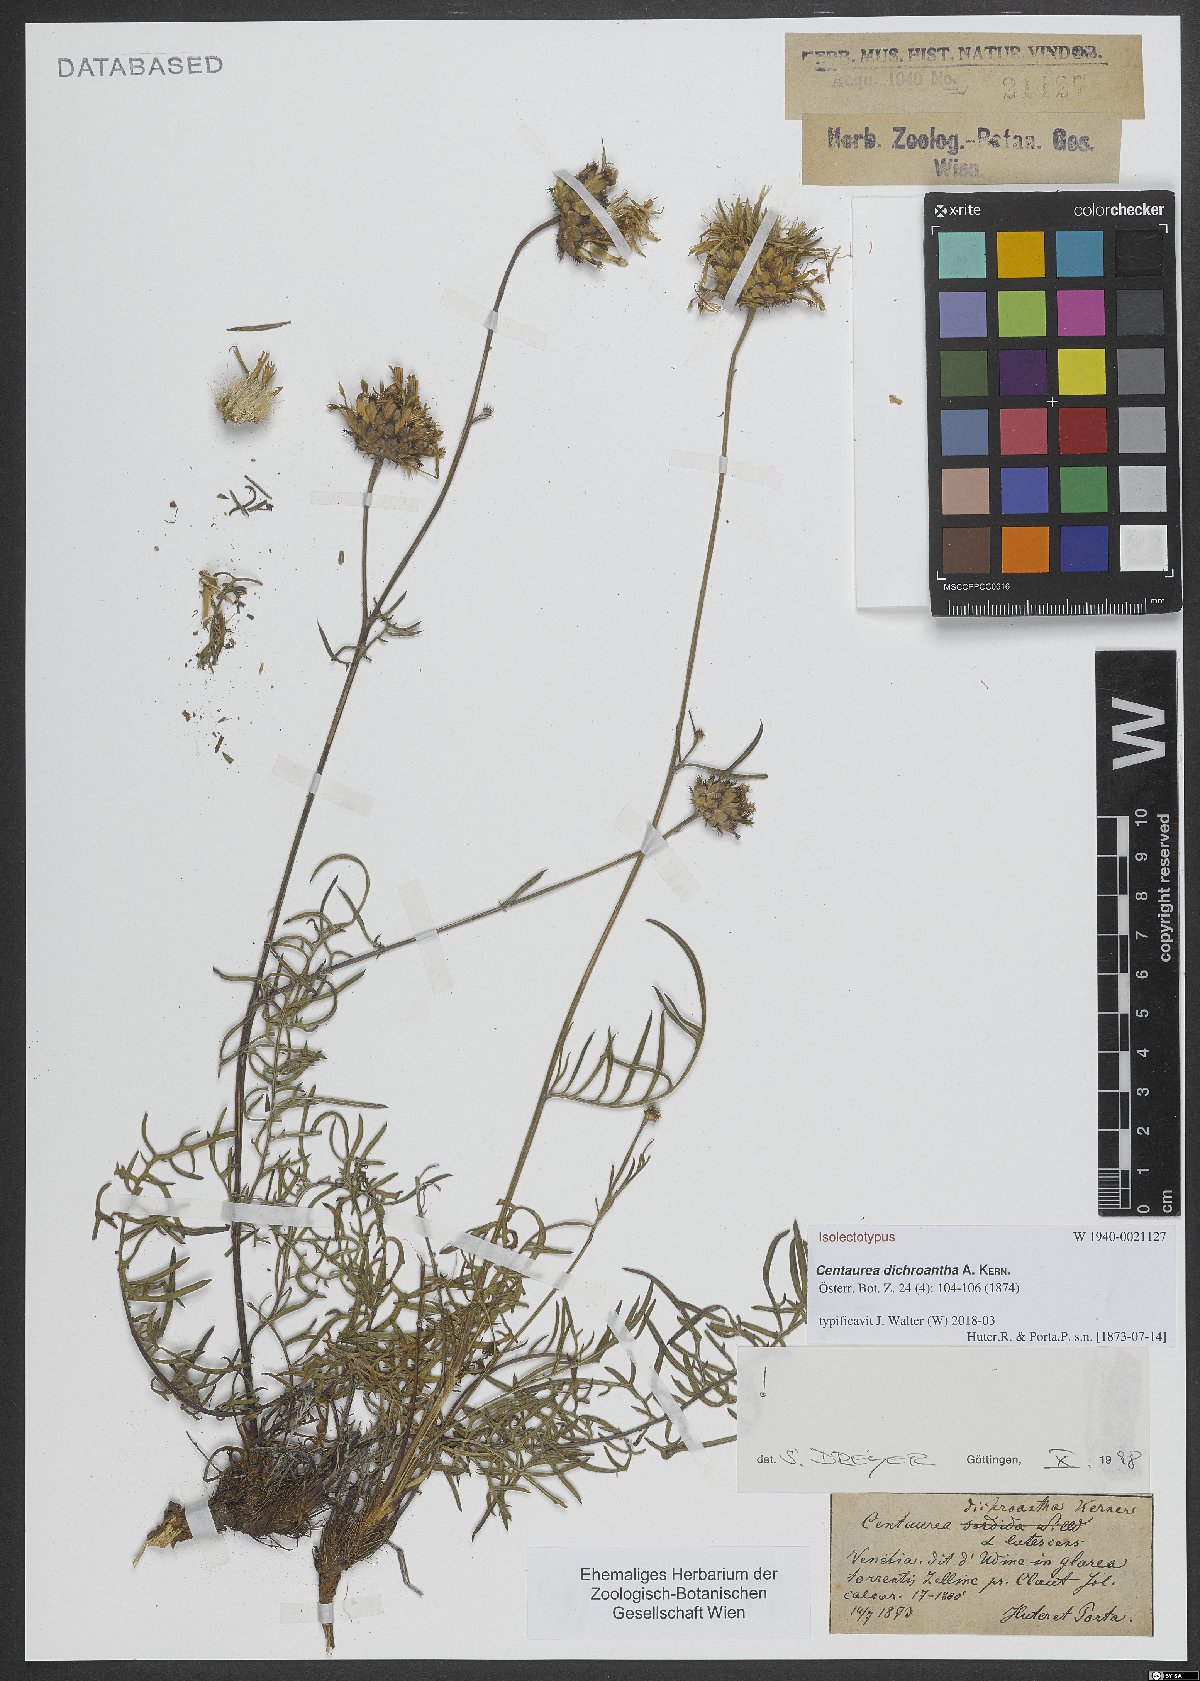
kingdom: Plantae
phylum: Tracheophyta
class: Magnoliopsida
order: Asterales
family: Asteraceae
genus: Centaurea
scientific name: Centaurea dichroantha
